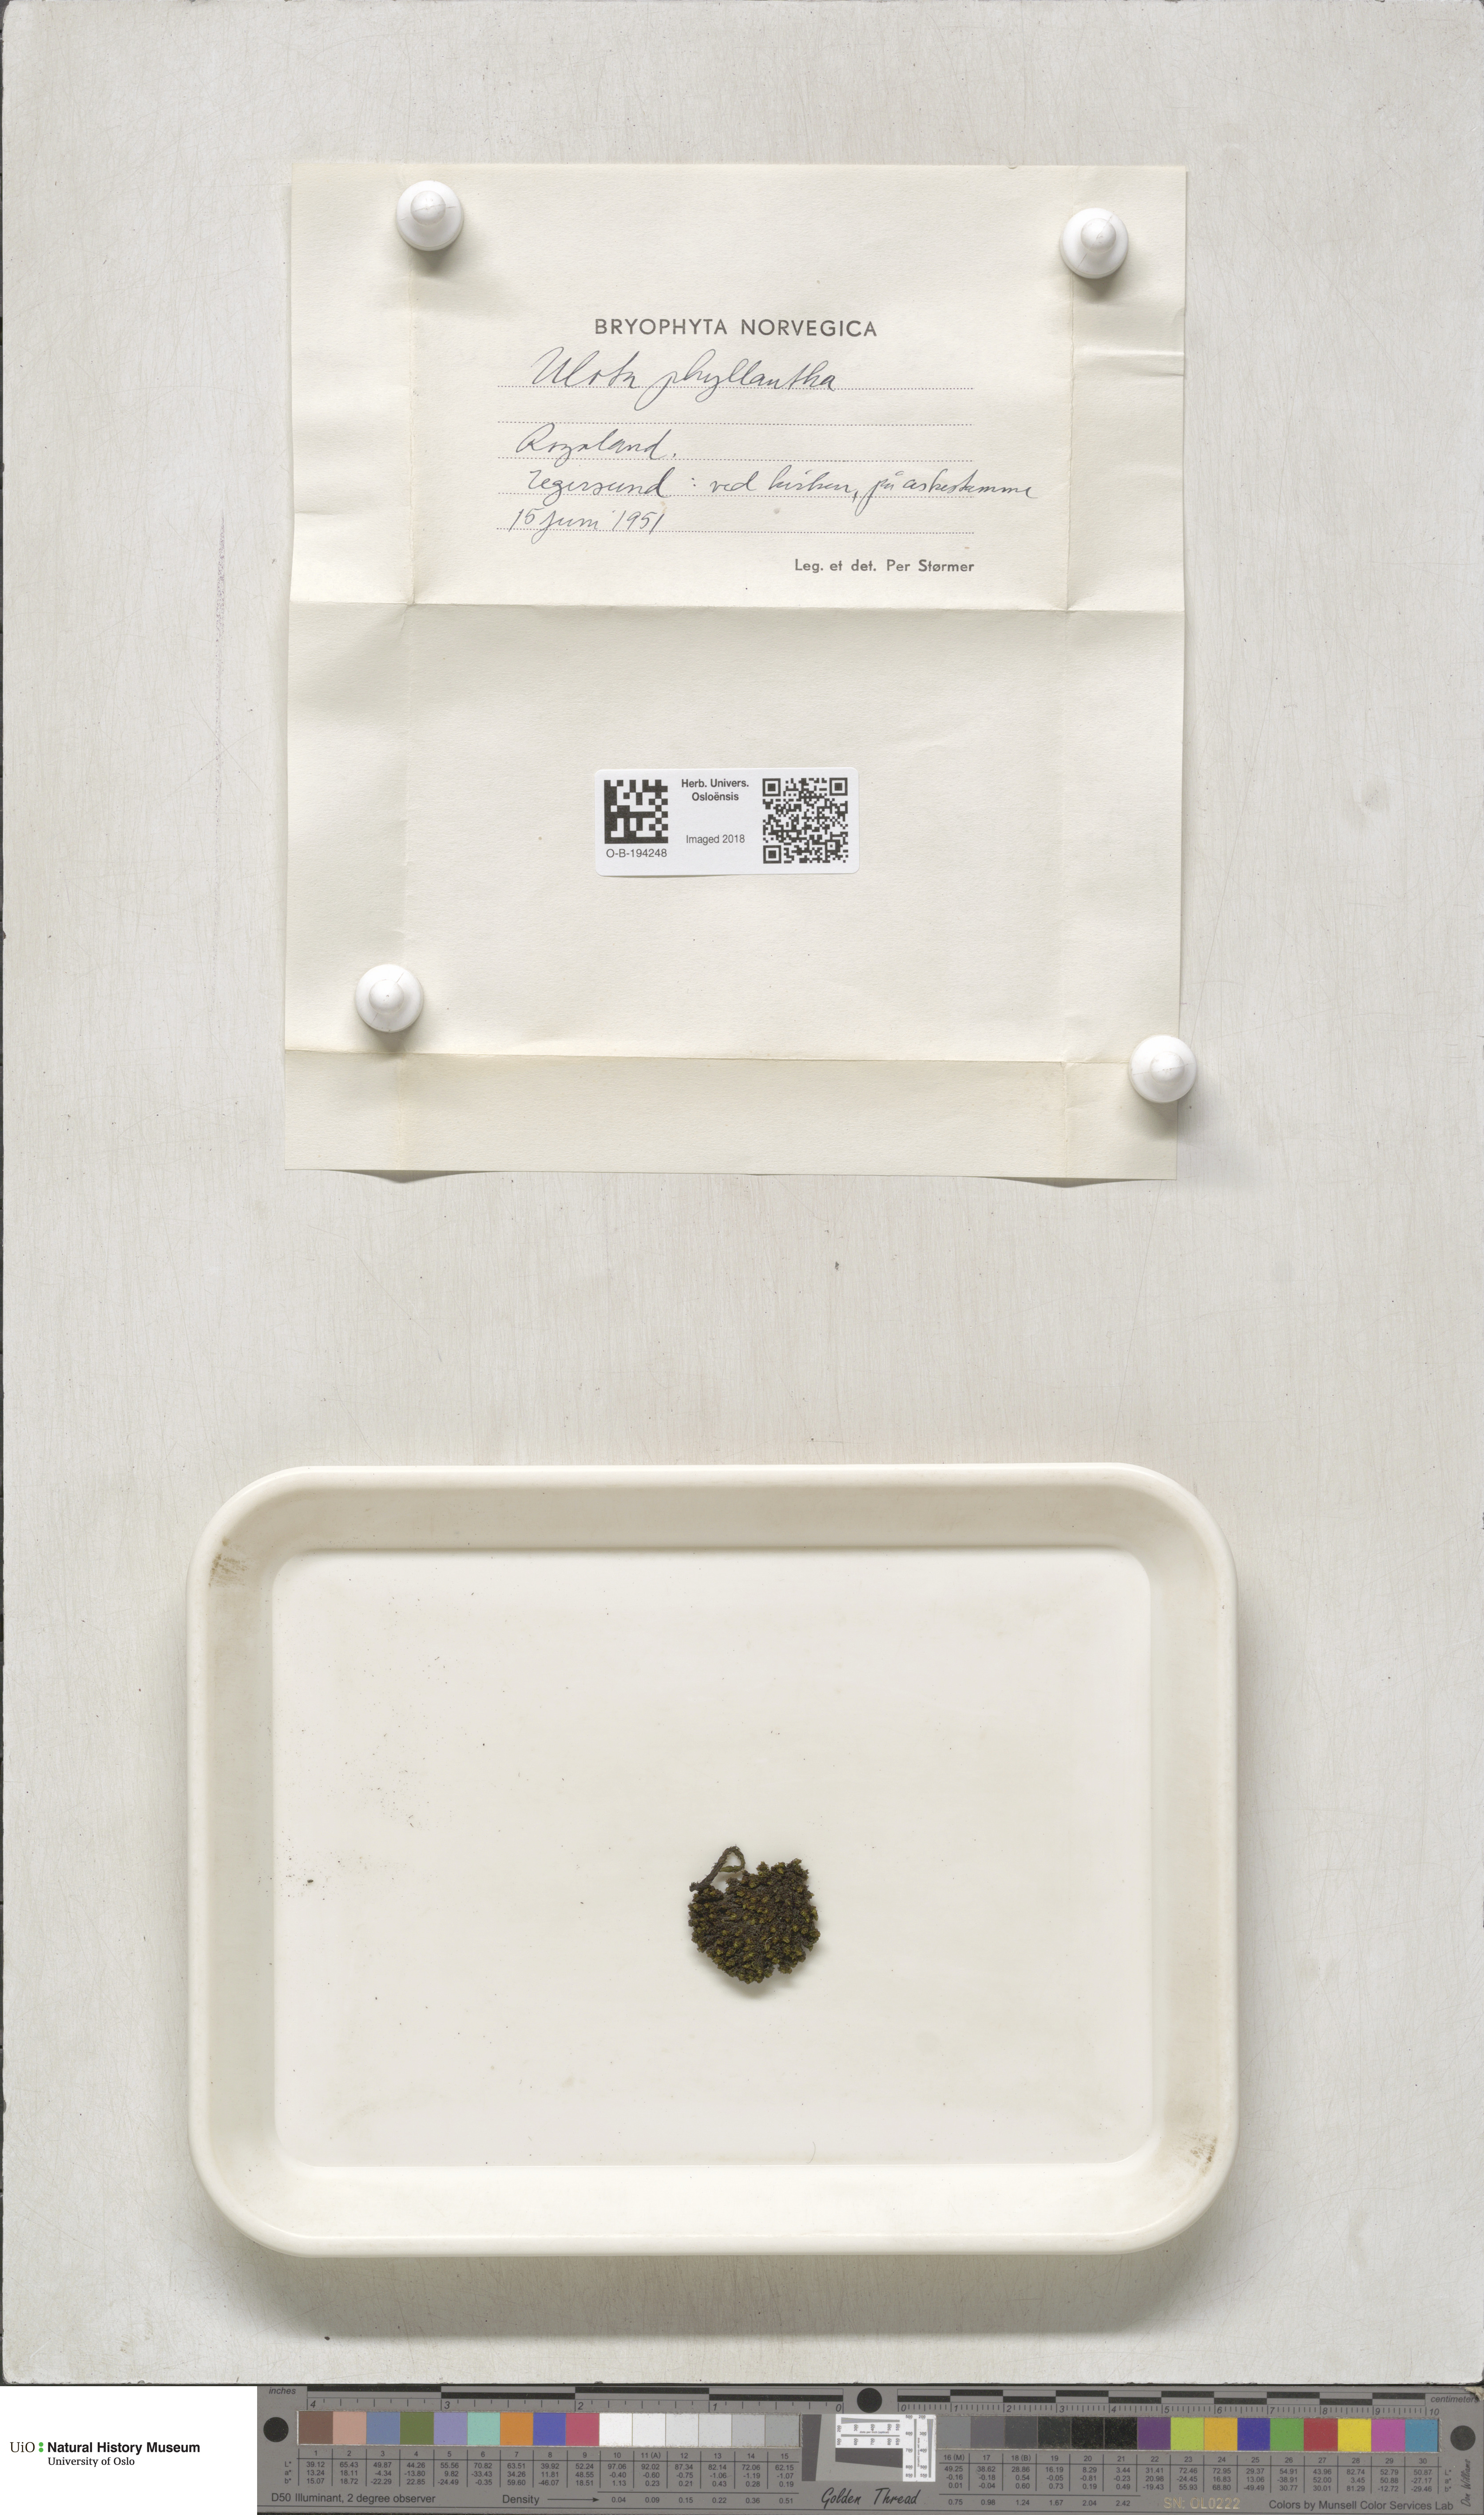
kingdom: Plantae
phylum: Bryophyta
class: Bryopsida
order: Orthotrichales
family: Orthotrichaceae
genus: Plenogemma
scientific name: Plenogemma phyllantha
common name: Frizzled pincushion
